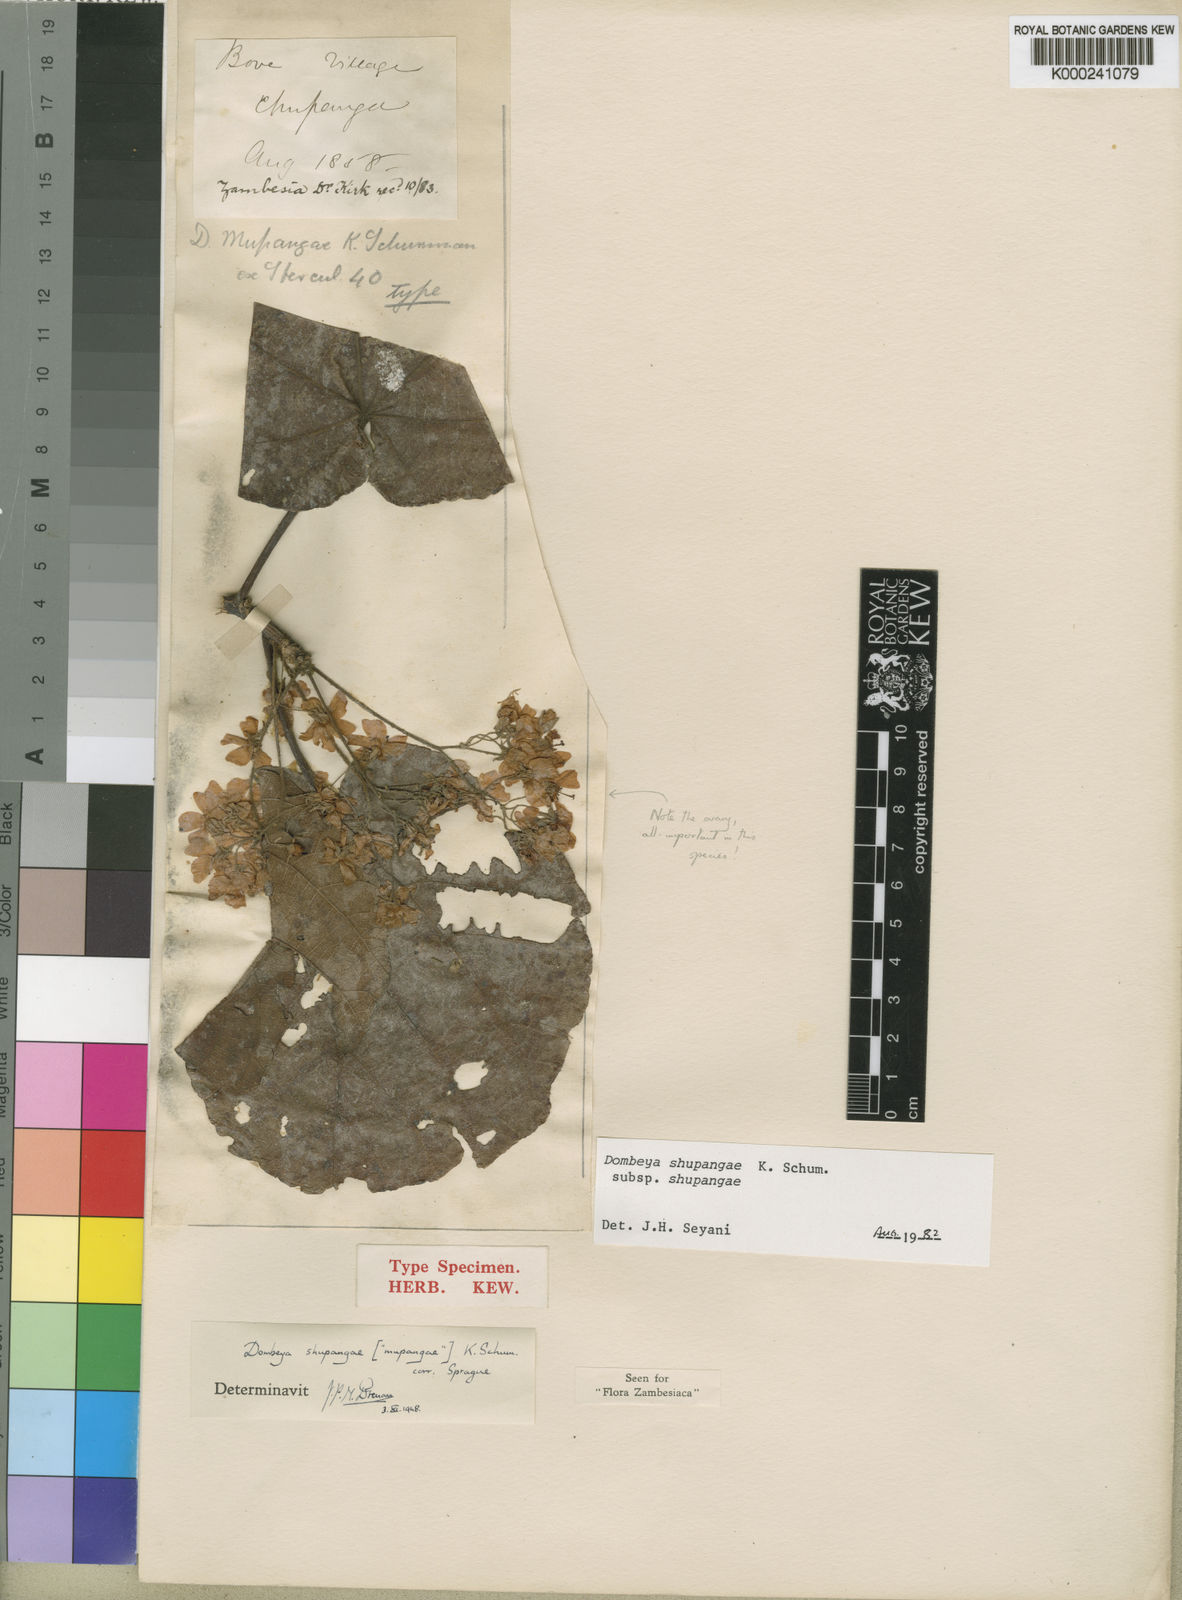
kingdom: Plantae
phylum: Tracheophyta
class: Magnoliopsida
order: Malvales
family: Malvaceae
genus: Dombeya
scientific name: Dombeya shupangae
